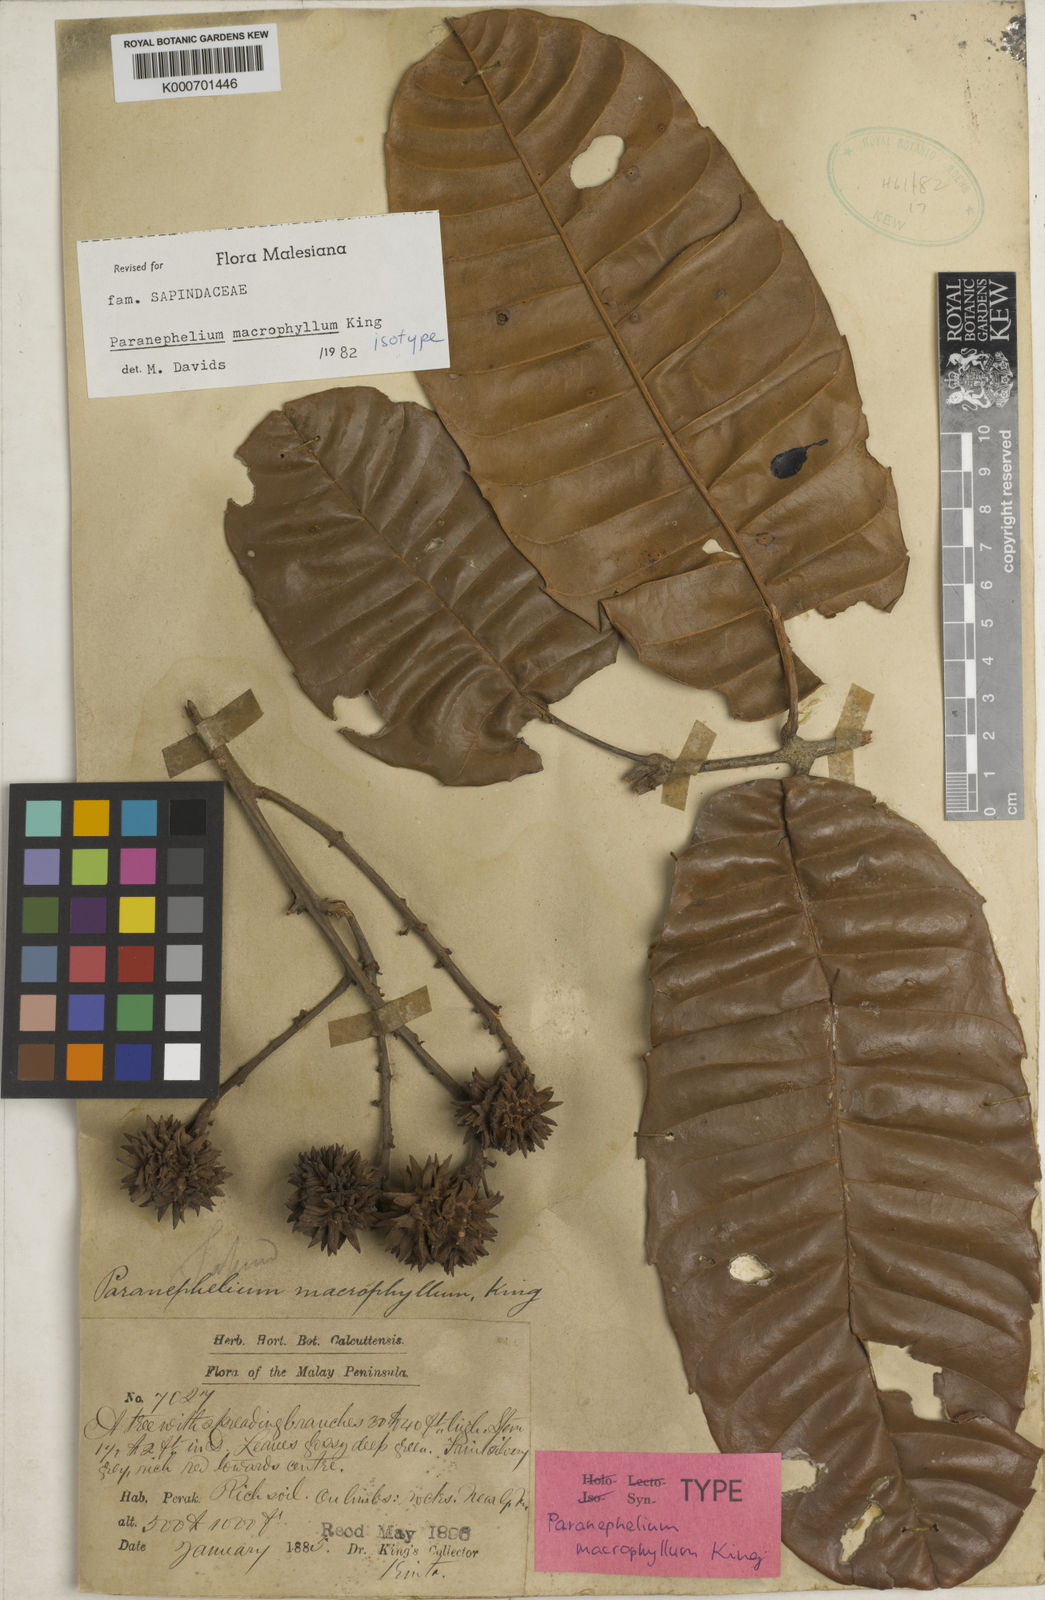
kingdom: Plantae
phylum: Tracheophyta
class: Magnoliopsida
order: Sapindales
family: Sapindaceae
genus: Paranephelium
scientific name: Paranephelium macrophyllum
